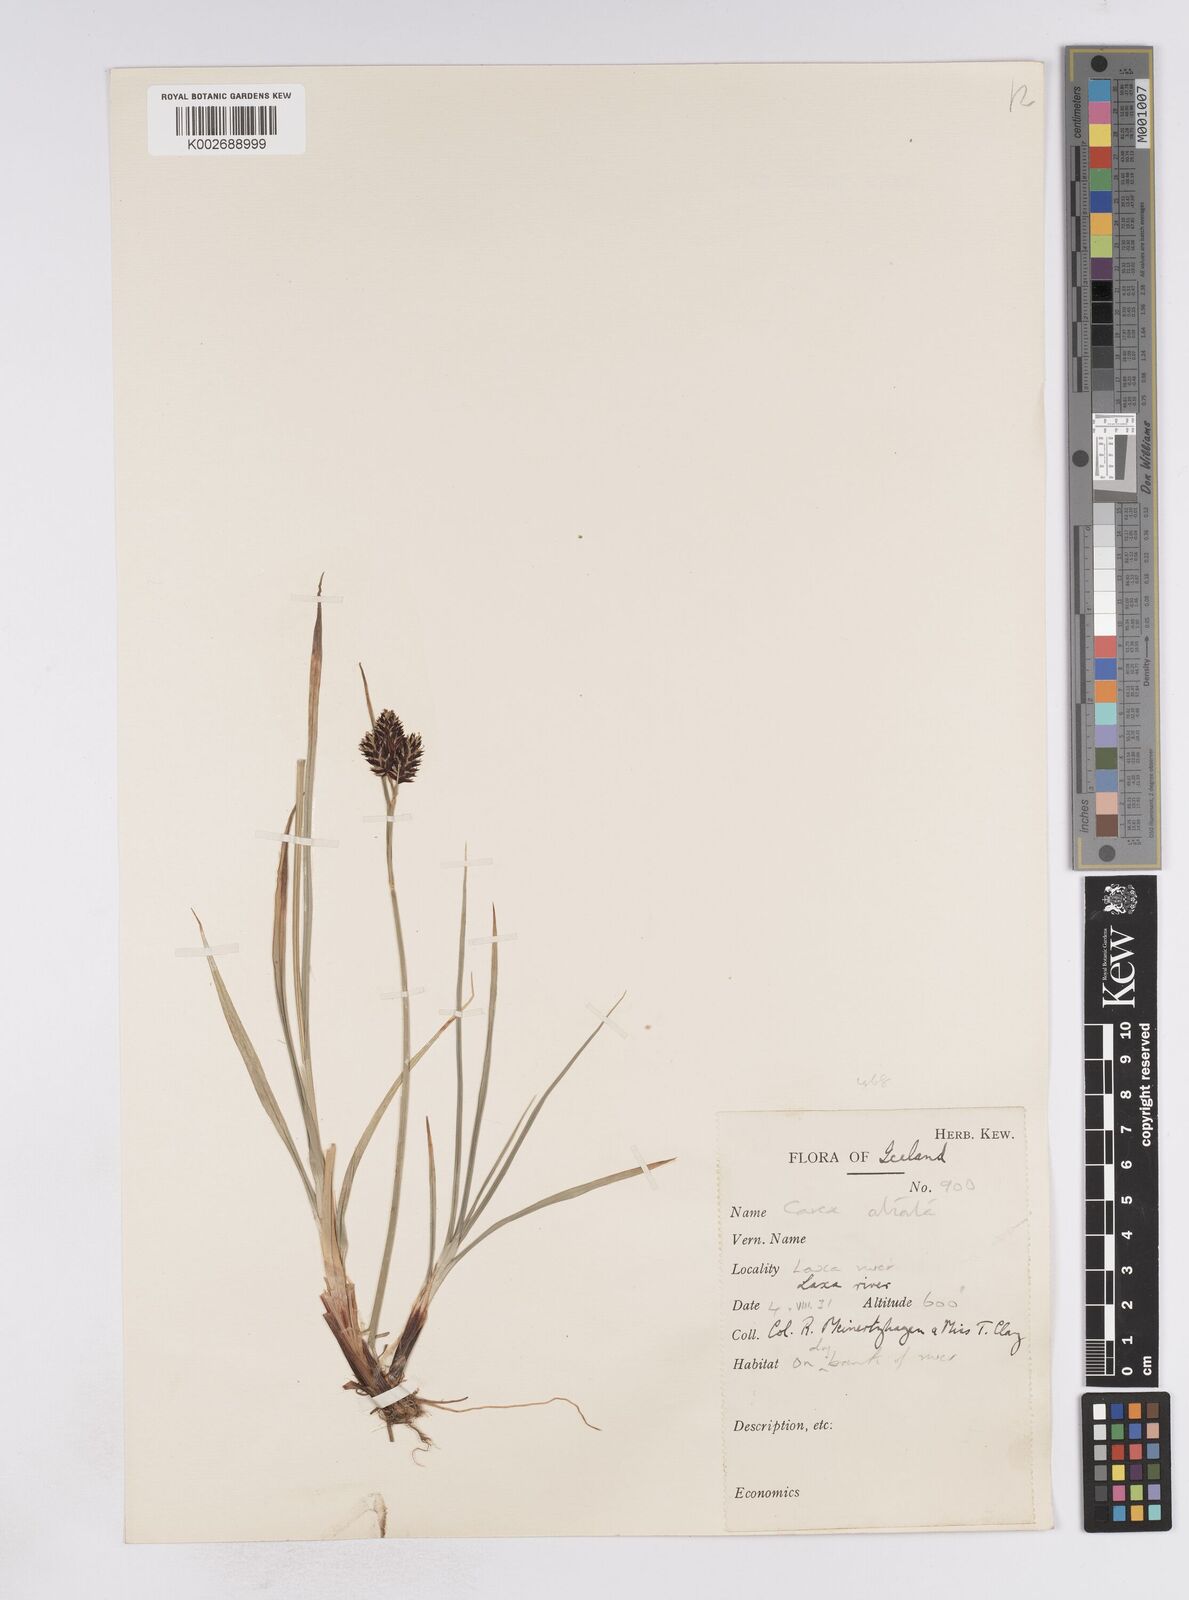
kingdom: Plantae
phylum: Tracheophyta
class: Liliopsida
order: Poales
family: Cyperaceae
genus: Carex
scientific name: Carex atrata
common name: Black alpine sedge
